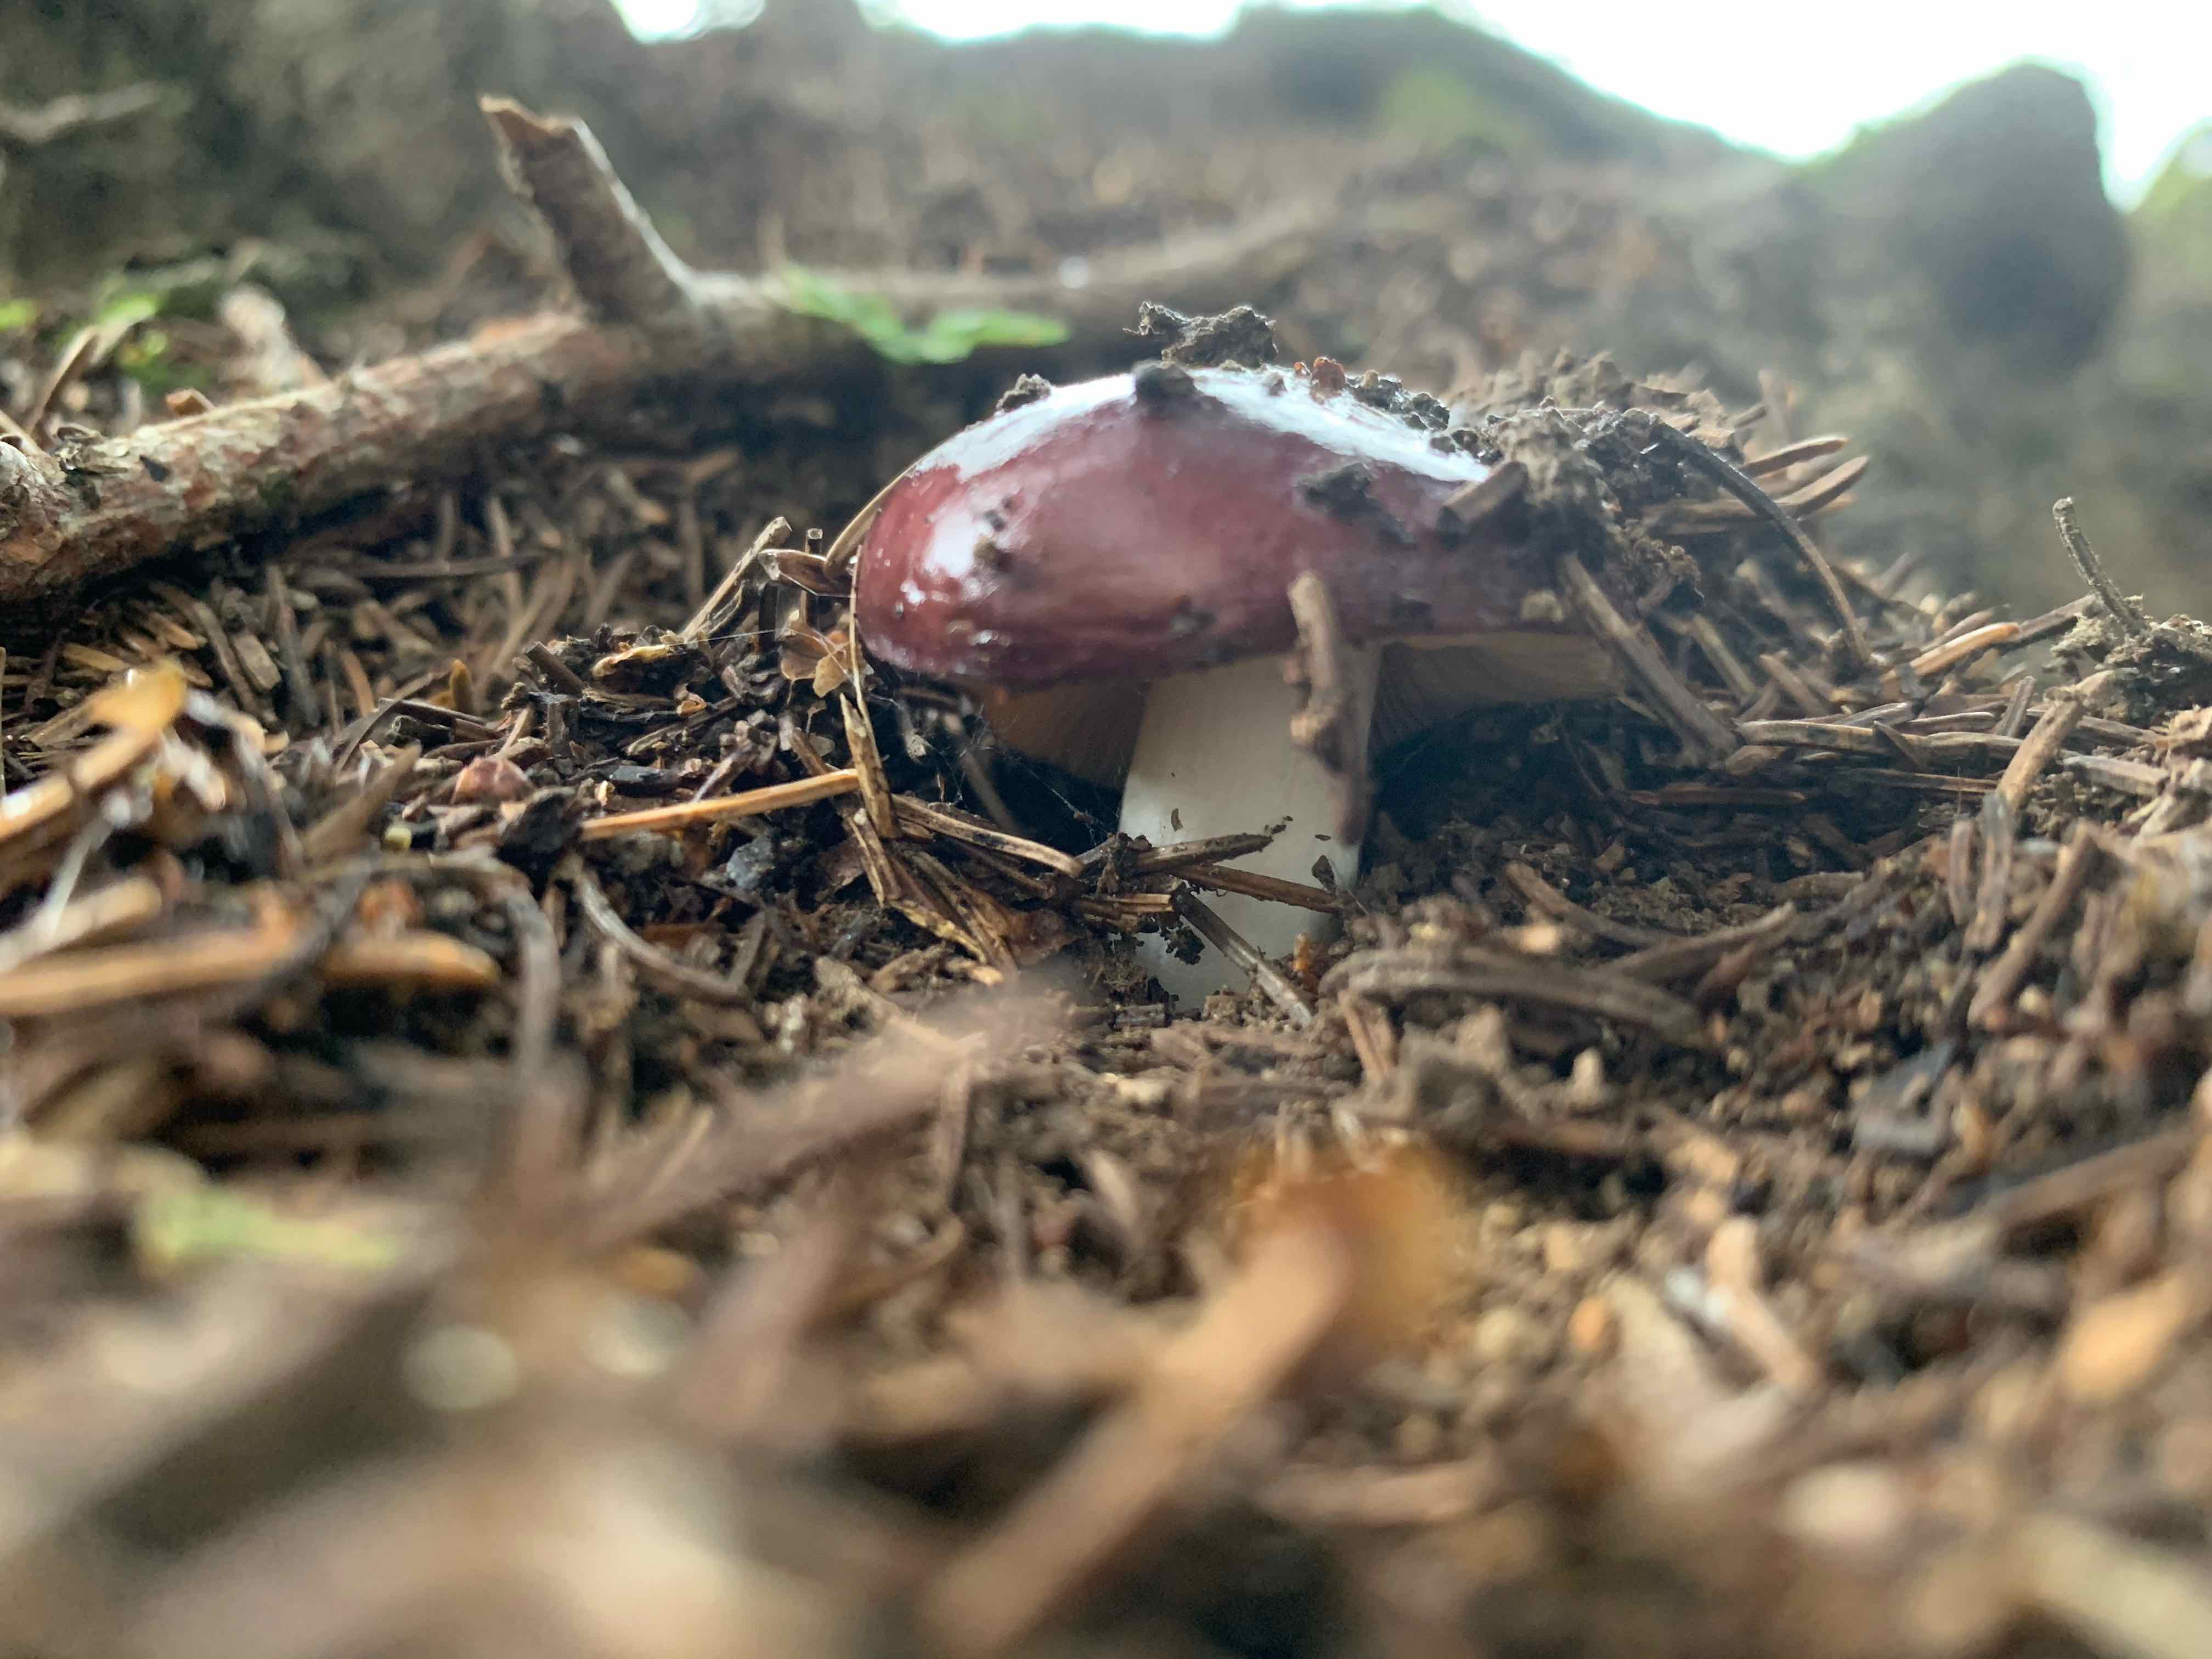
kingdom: Fungi
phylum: Basidiomycota
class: Agaricomycetes
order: Russulales
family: Russulaceae
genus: Russula
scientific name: Russula
